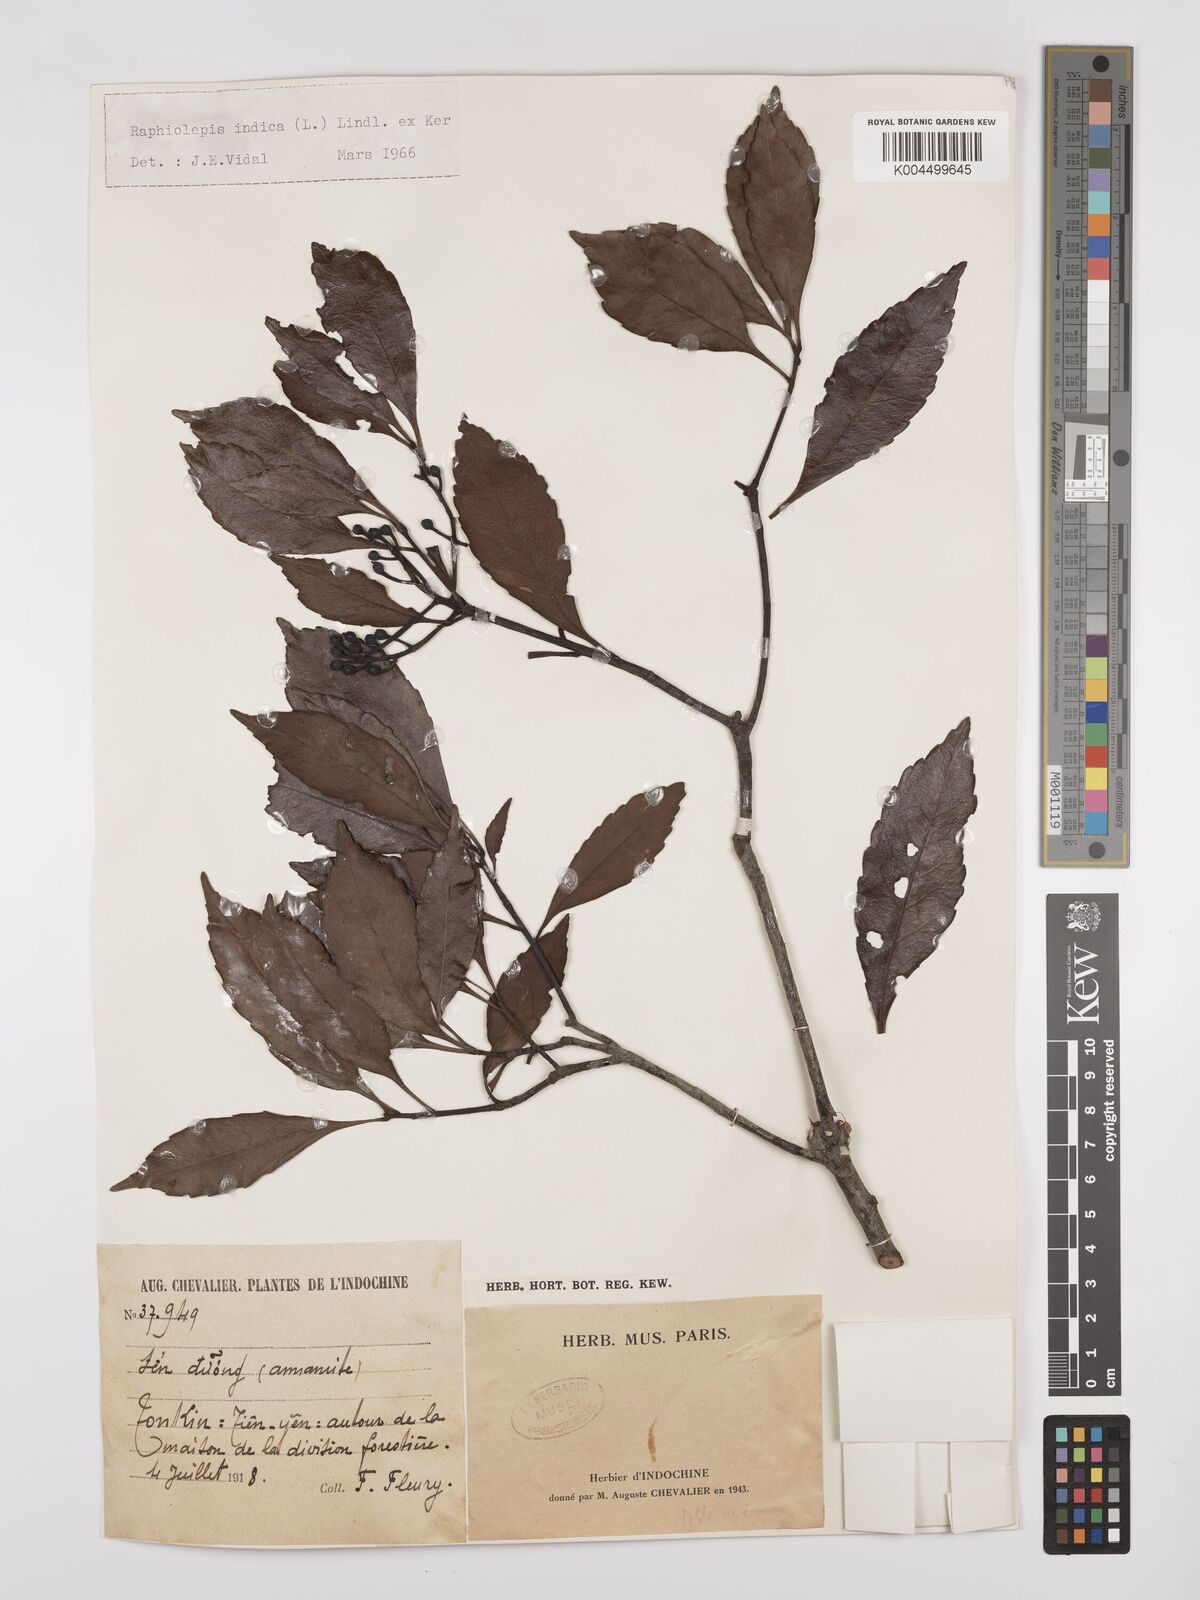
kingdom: Plantae
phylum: Tracheophyta
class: Magnoliopsida
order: Rosales
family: Rosaceae
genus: Rhaphiolepis
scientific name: Rhaphiolepis indica
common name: India-hawthorn
